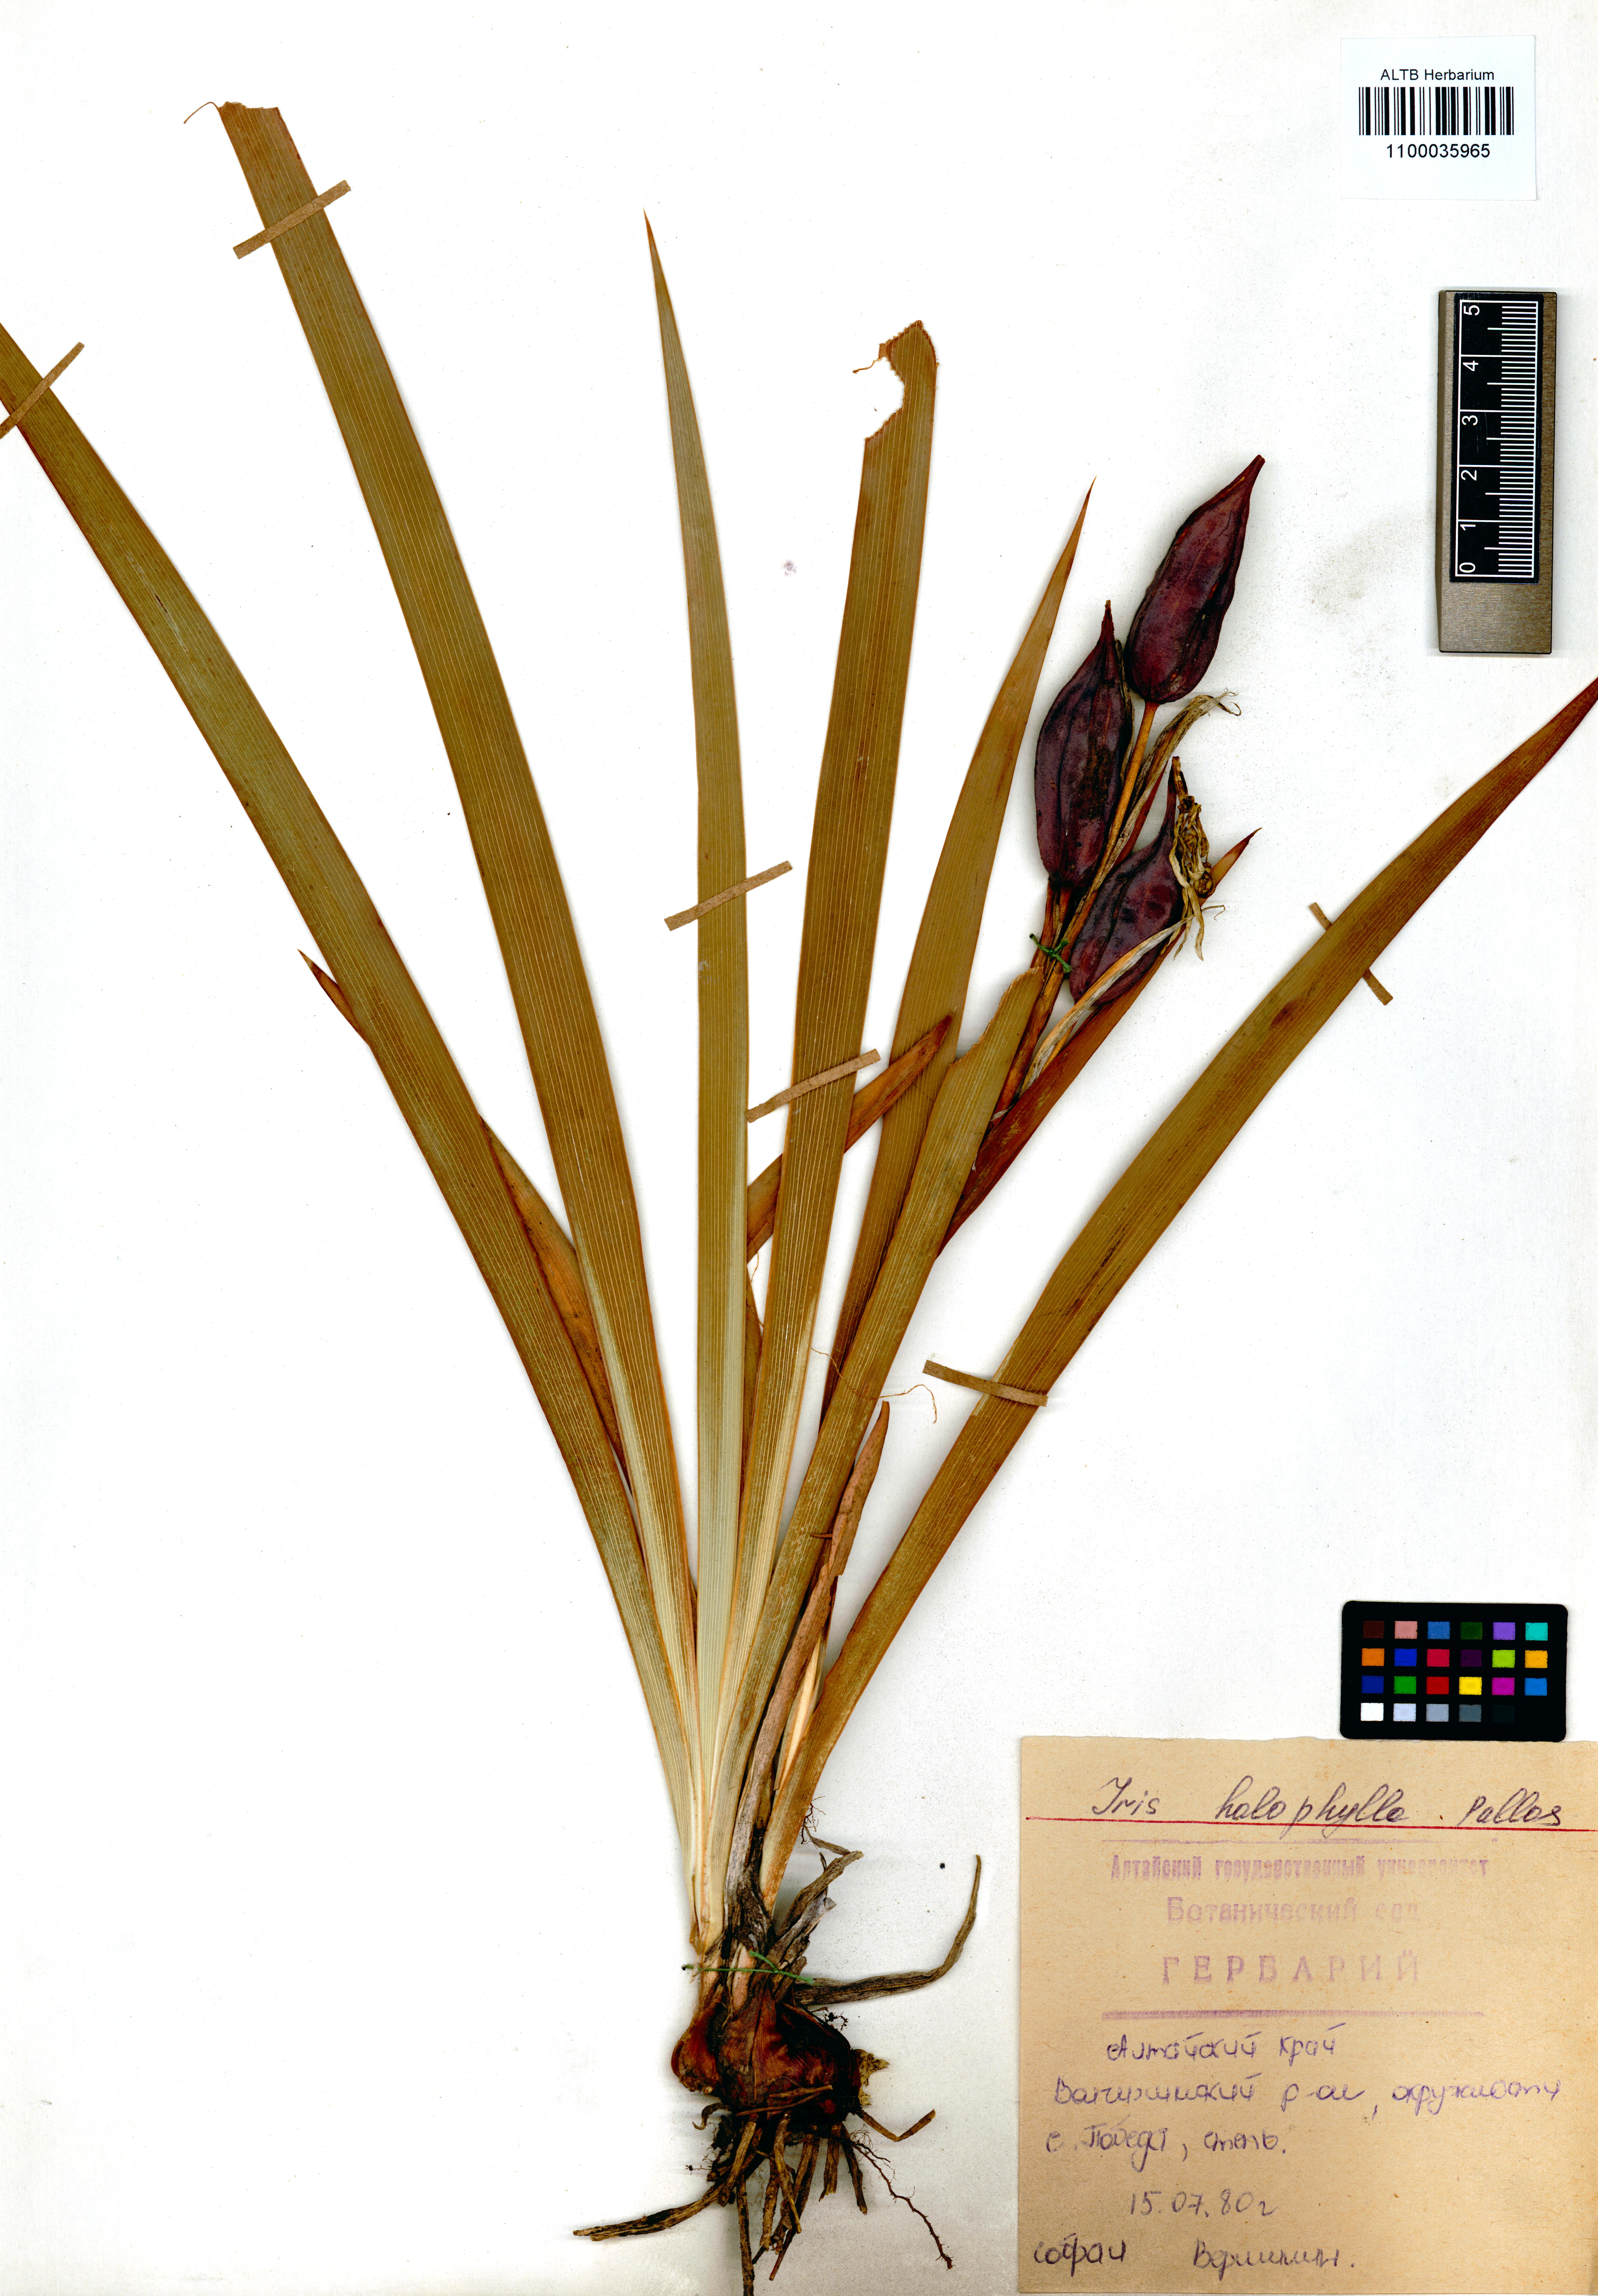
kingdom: Plantae
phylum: Tracheophyta
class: Liliopsida
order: Asparagales
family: Iridaceae
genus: Iris
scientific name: Iris halophila
